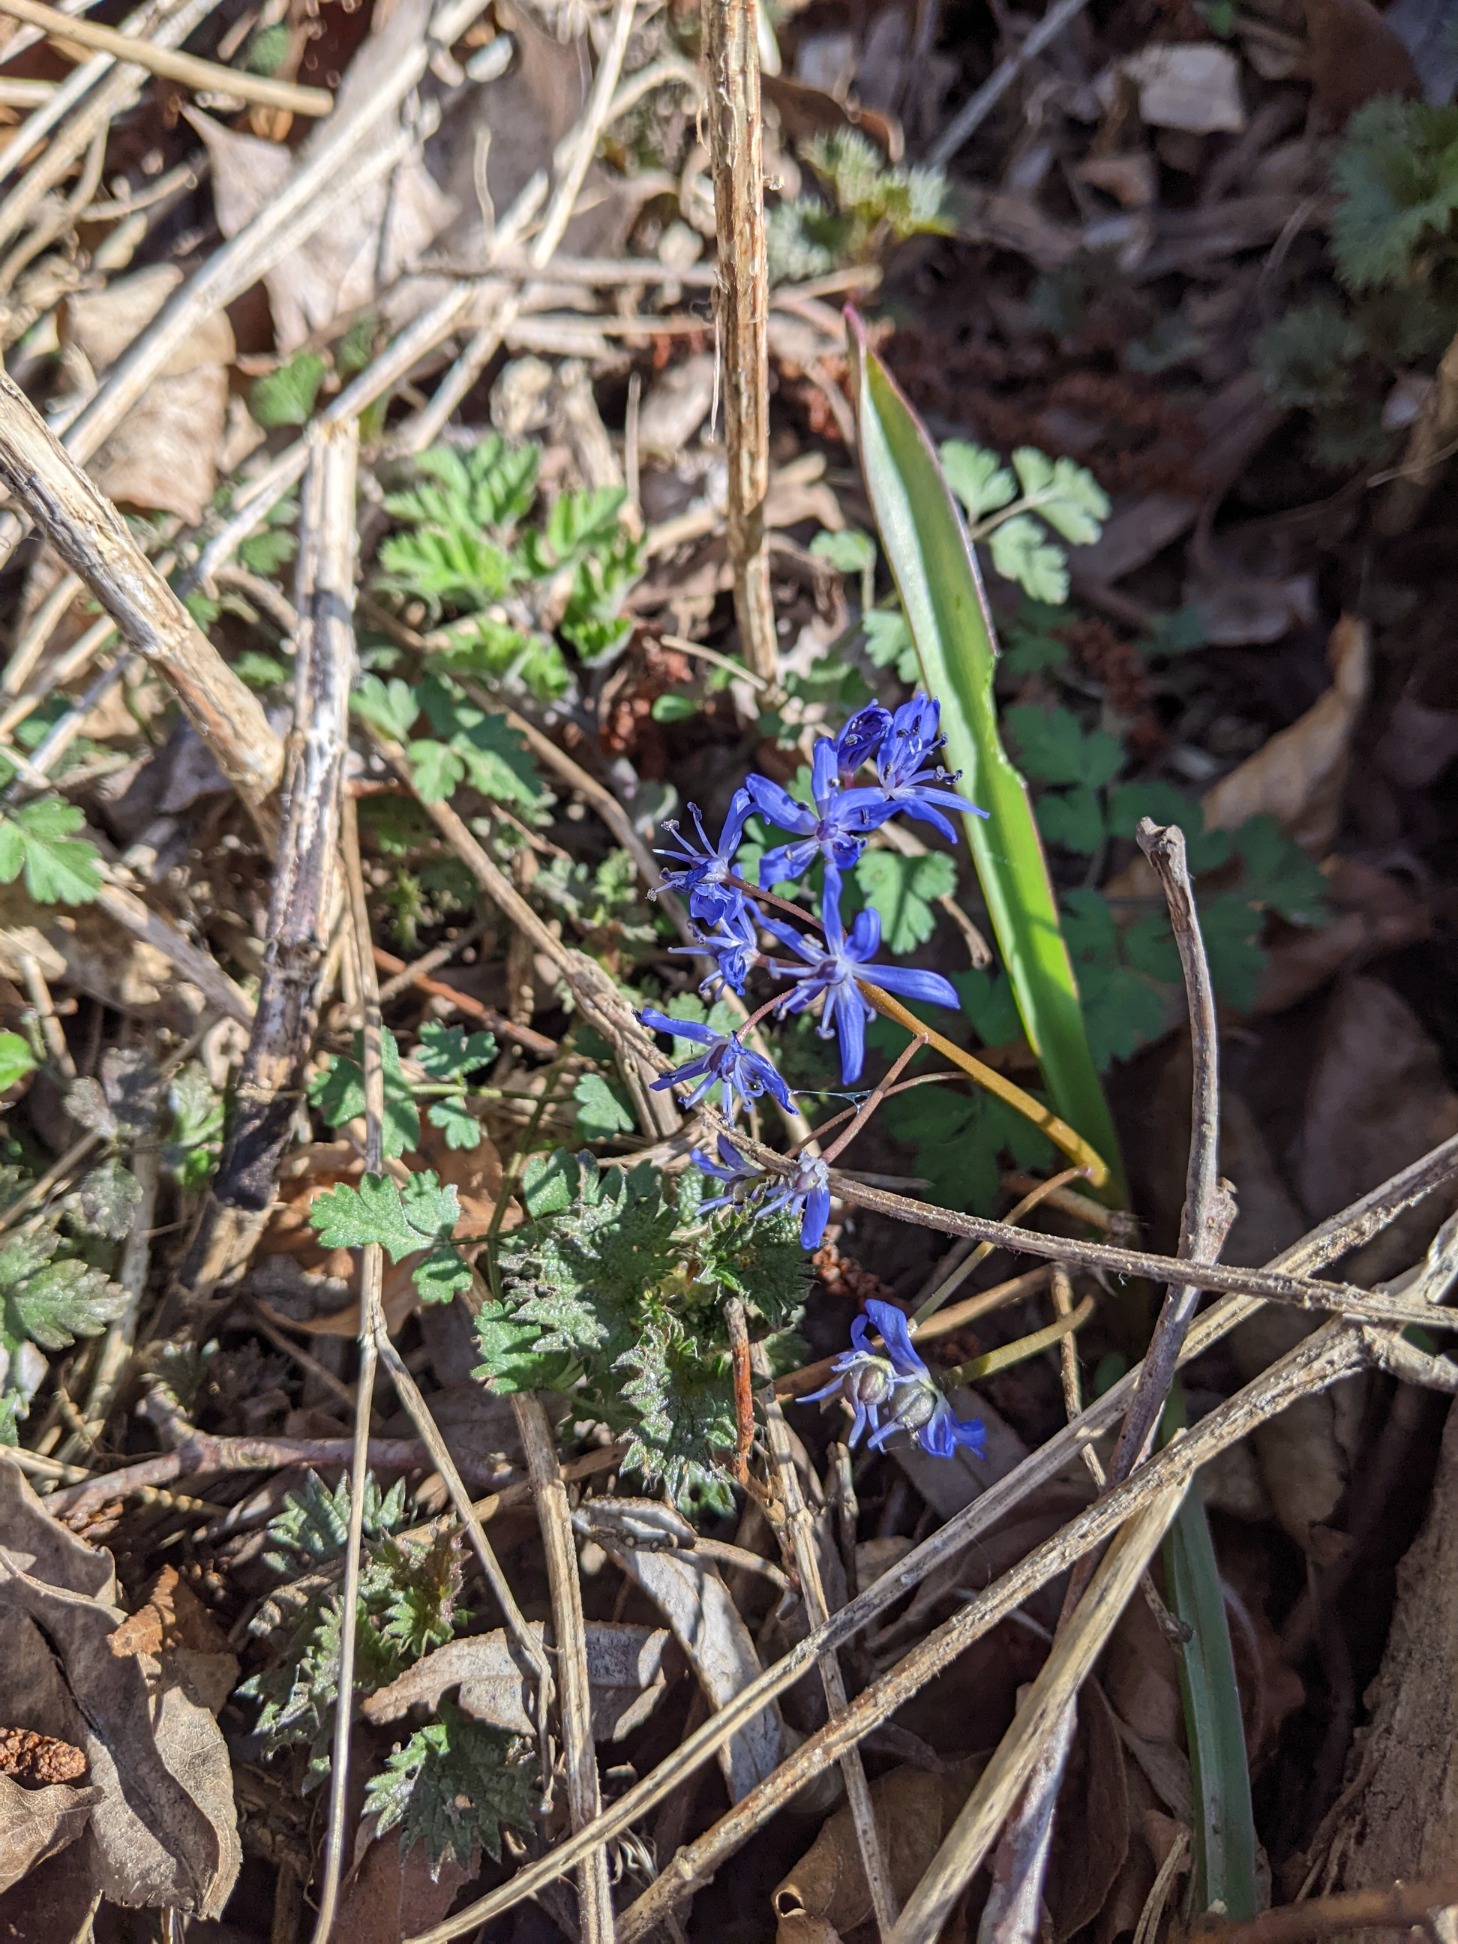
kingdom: Plantae
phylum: Tracheophyta
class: Liliopsida
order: Asparagales
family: Asparagaceae
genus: Scilla
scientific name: Scilla bifolia
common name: Tobladet skilla
